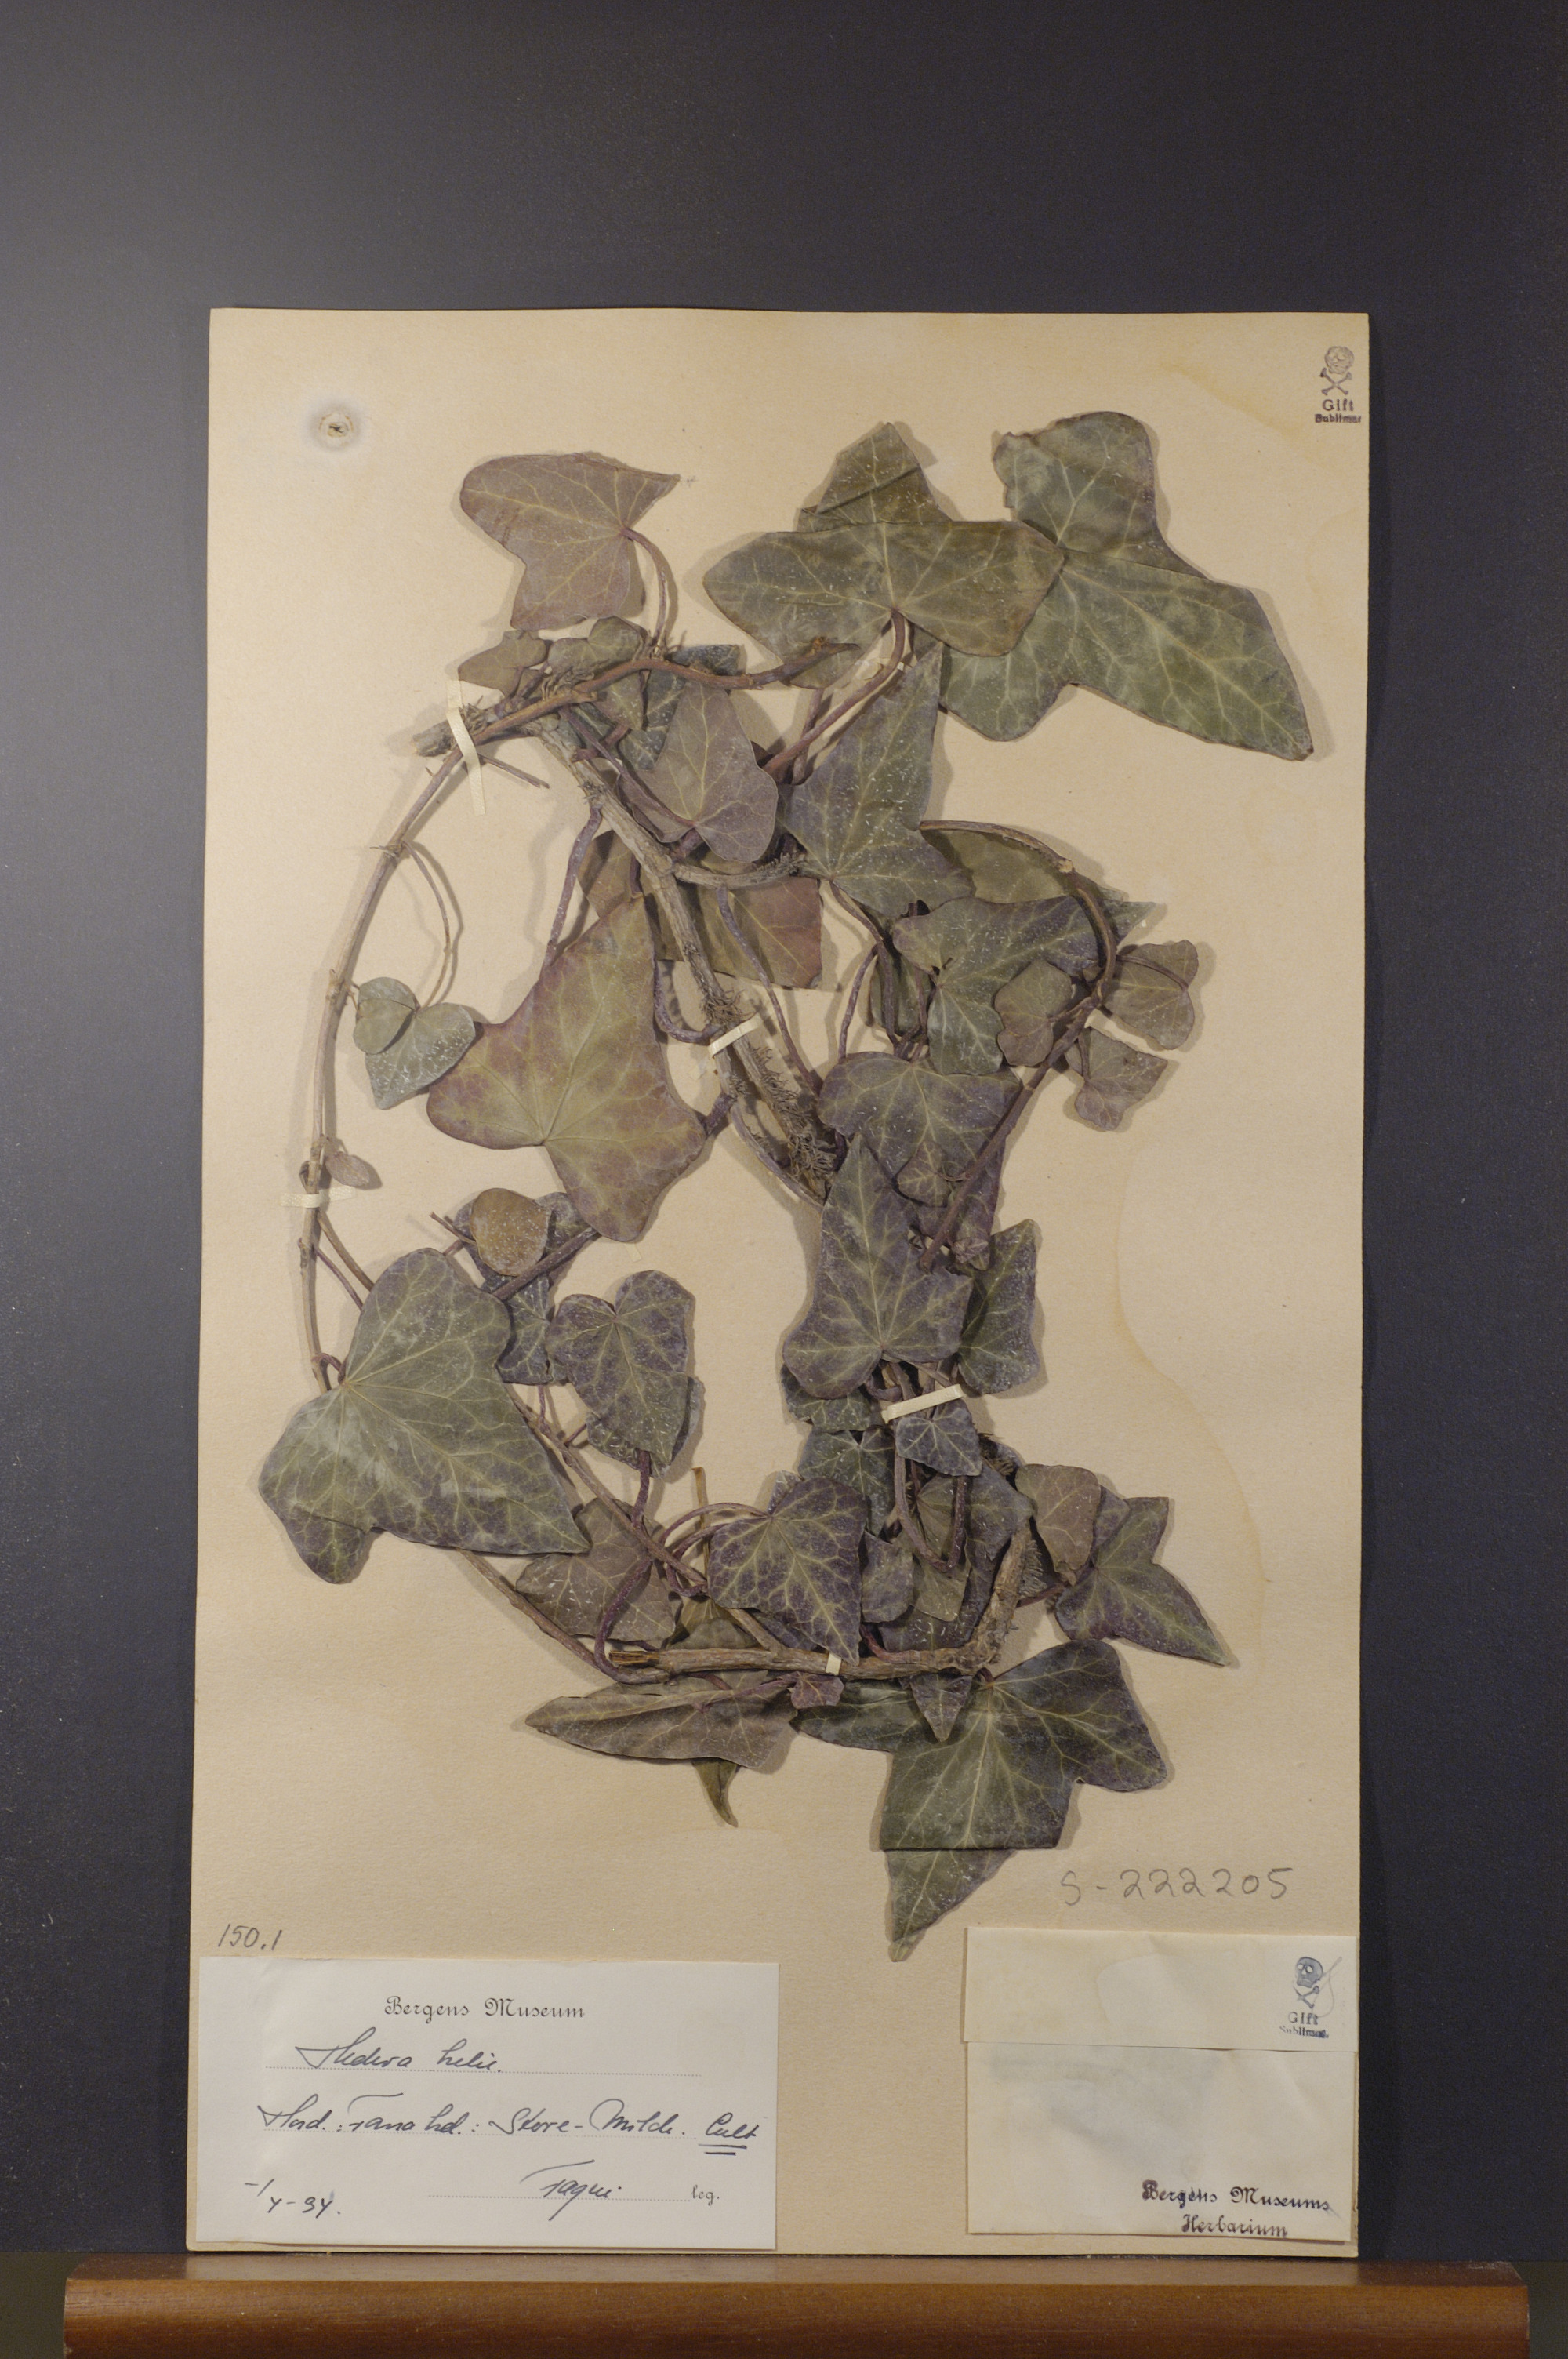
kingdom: Plantae
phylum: Tracheophyta
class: Magnoliopsida
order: Apiales
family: Araliaceae
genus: Hedera
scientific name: Hedera helix
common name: Ivy
